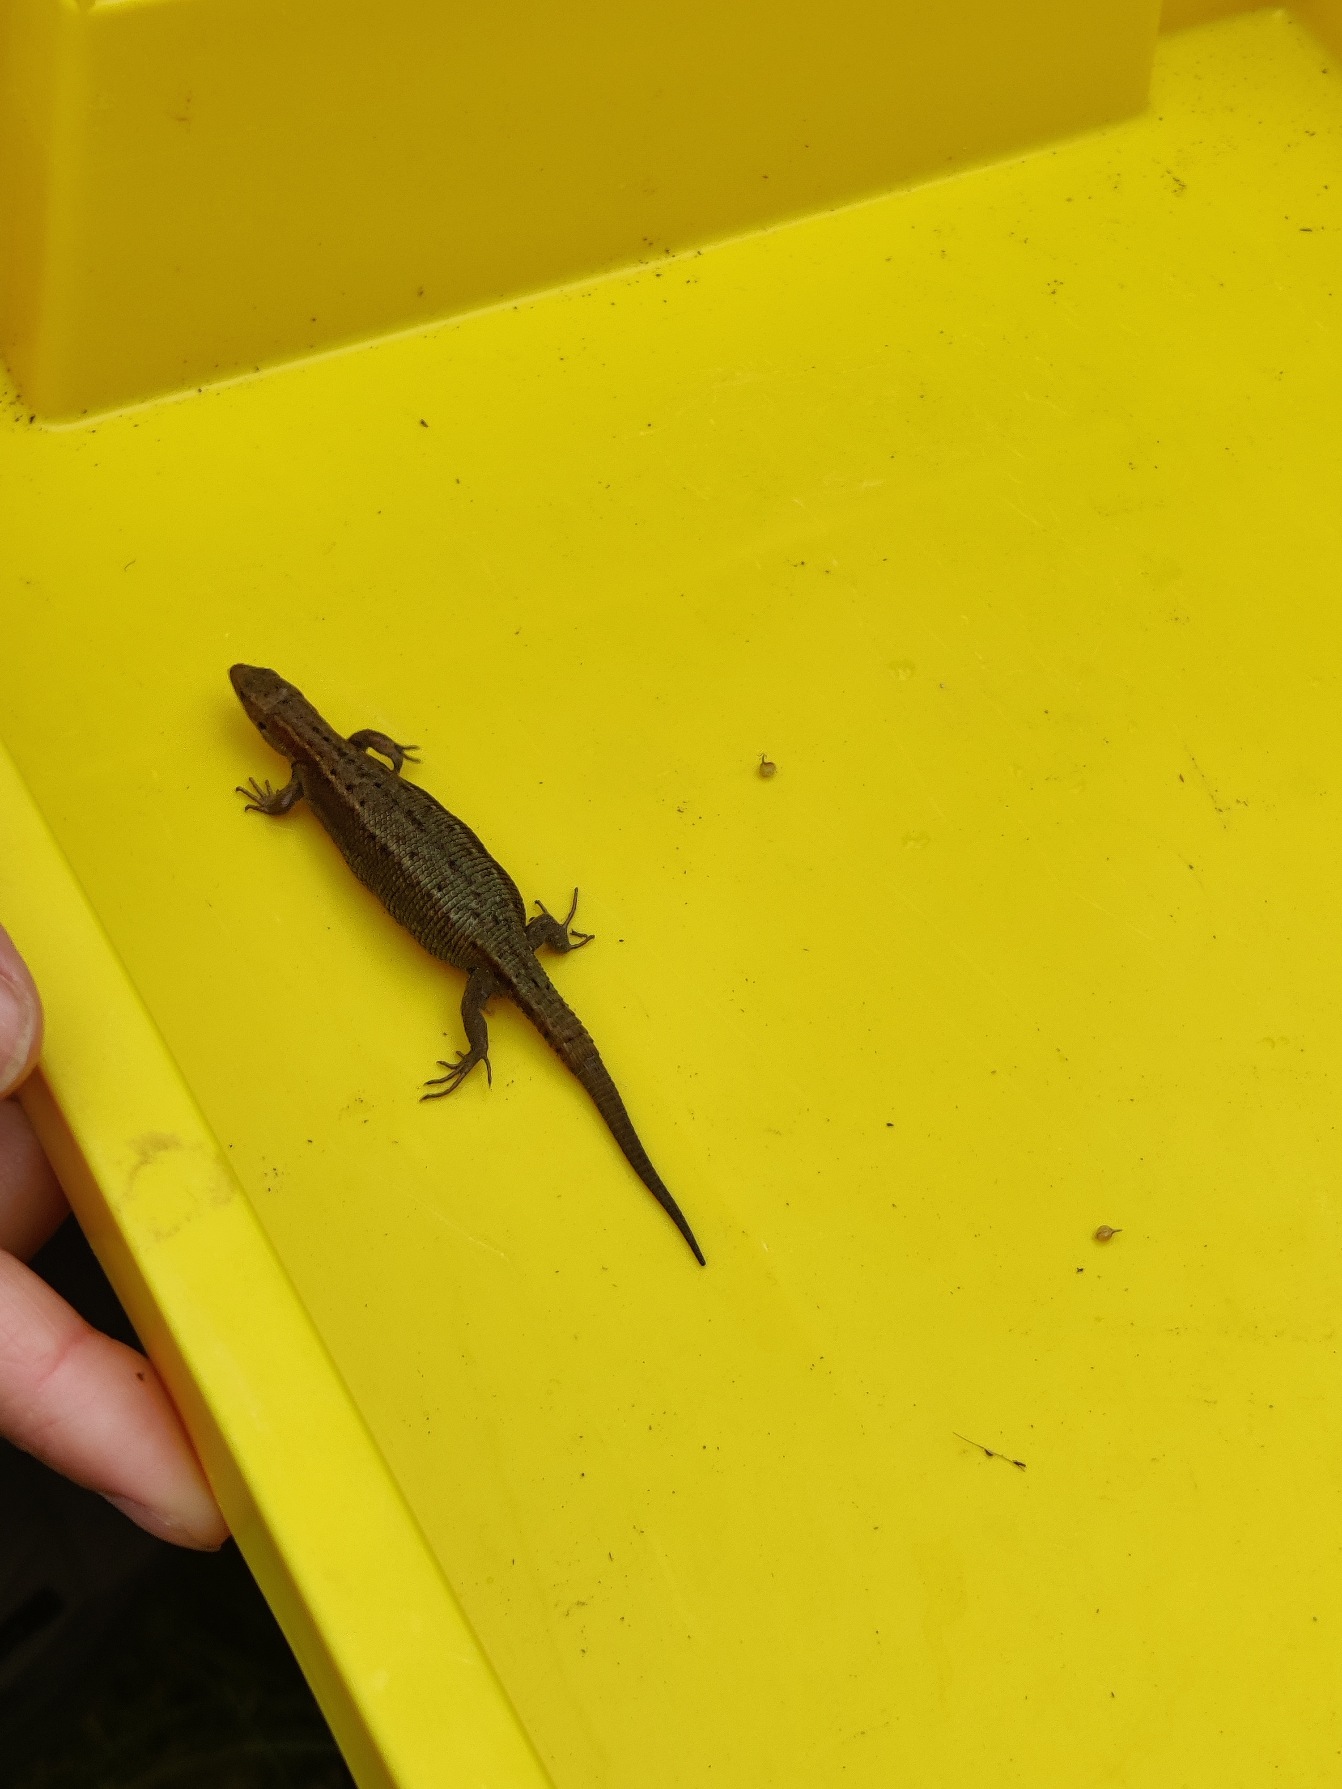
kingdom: Animalia
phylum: Chordata
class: Squamata
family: Lacertidae
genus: Zootoca
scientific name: Zootoca vivipara
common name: Skovfirben
